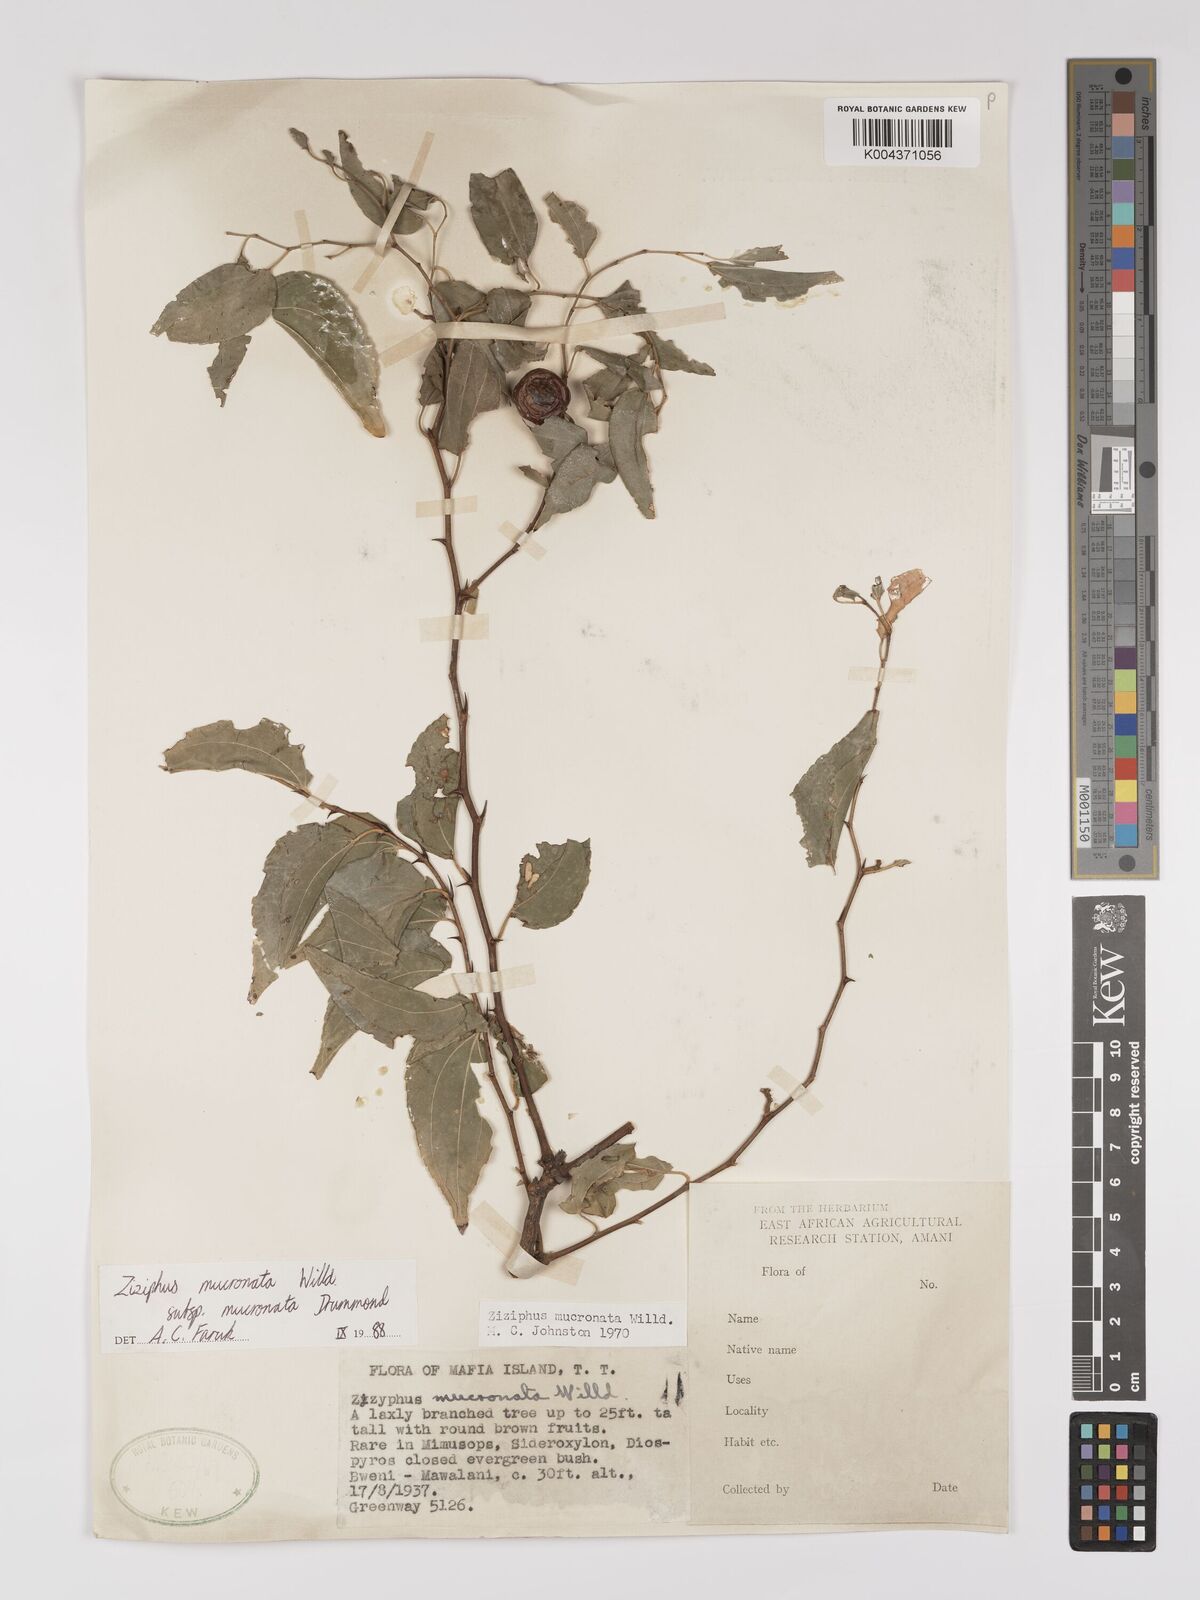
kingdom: Plantae
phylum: Tracheophyta
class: Magnoliopsida
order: Rosales
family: Rhamnaceae
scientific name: Rhamnaceae
